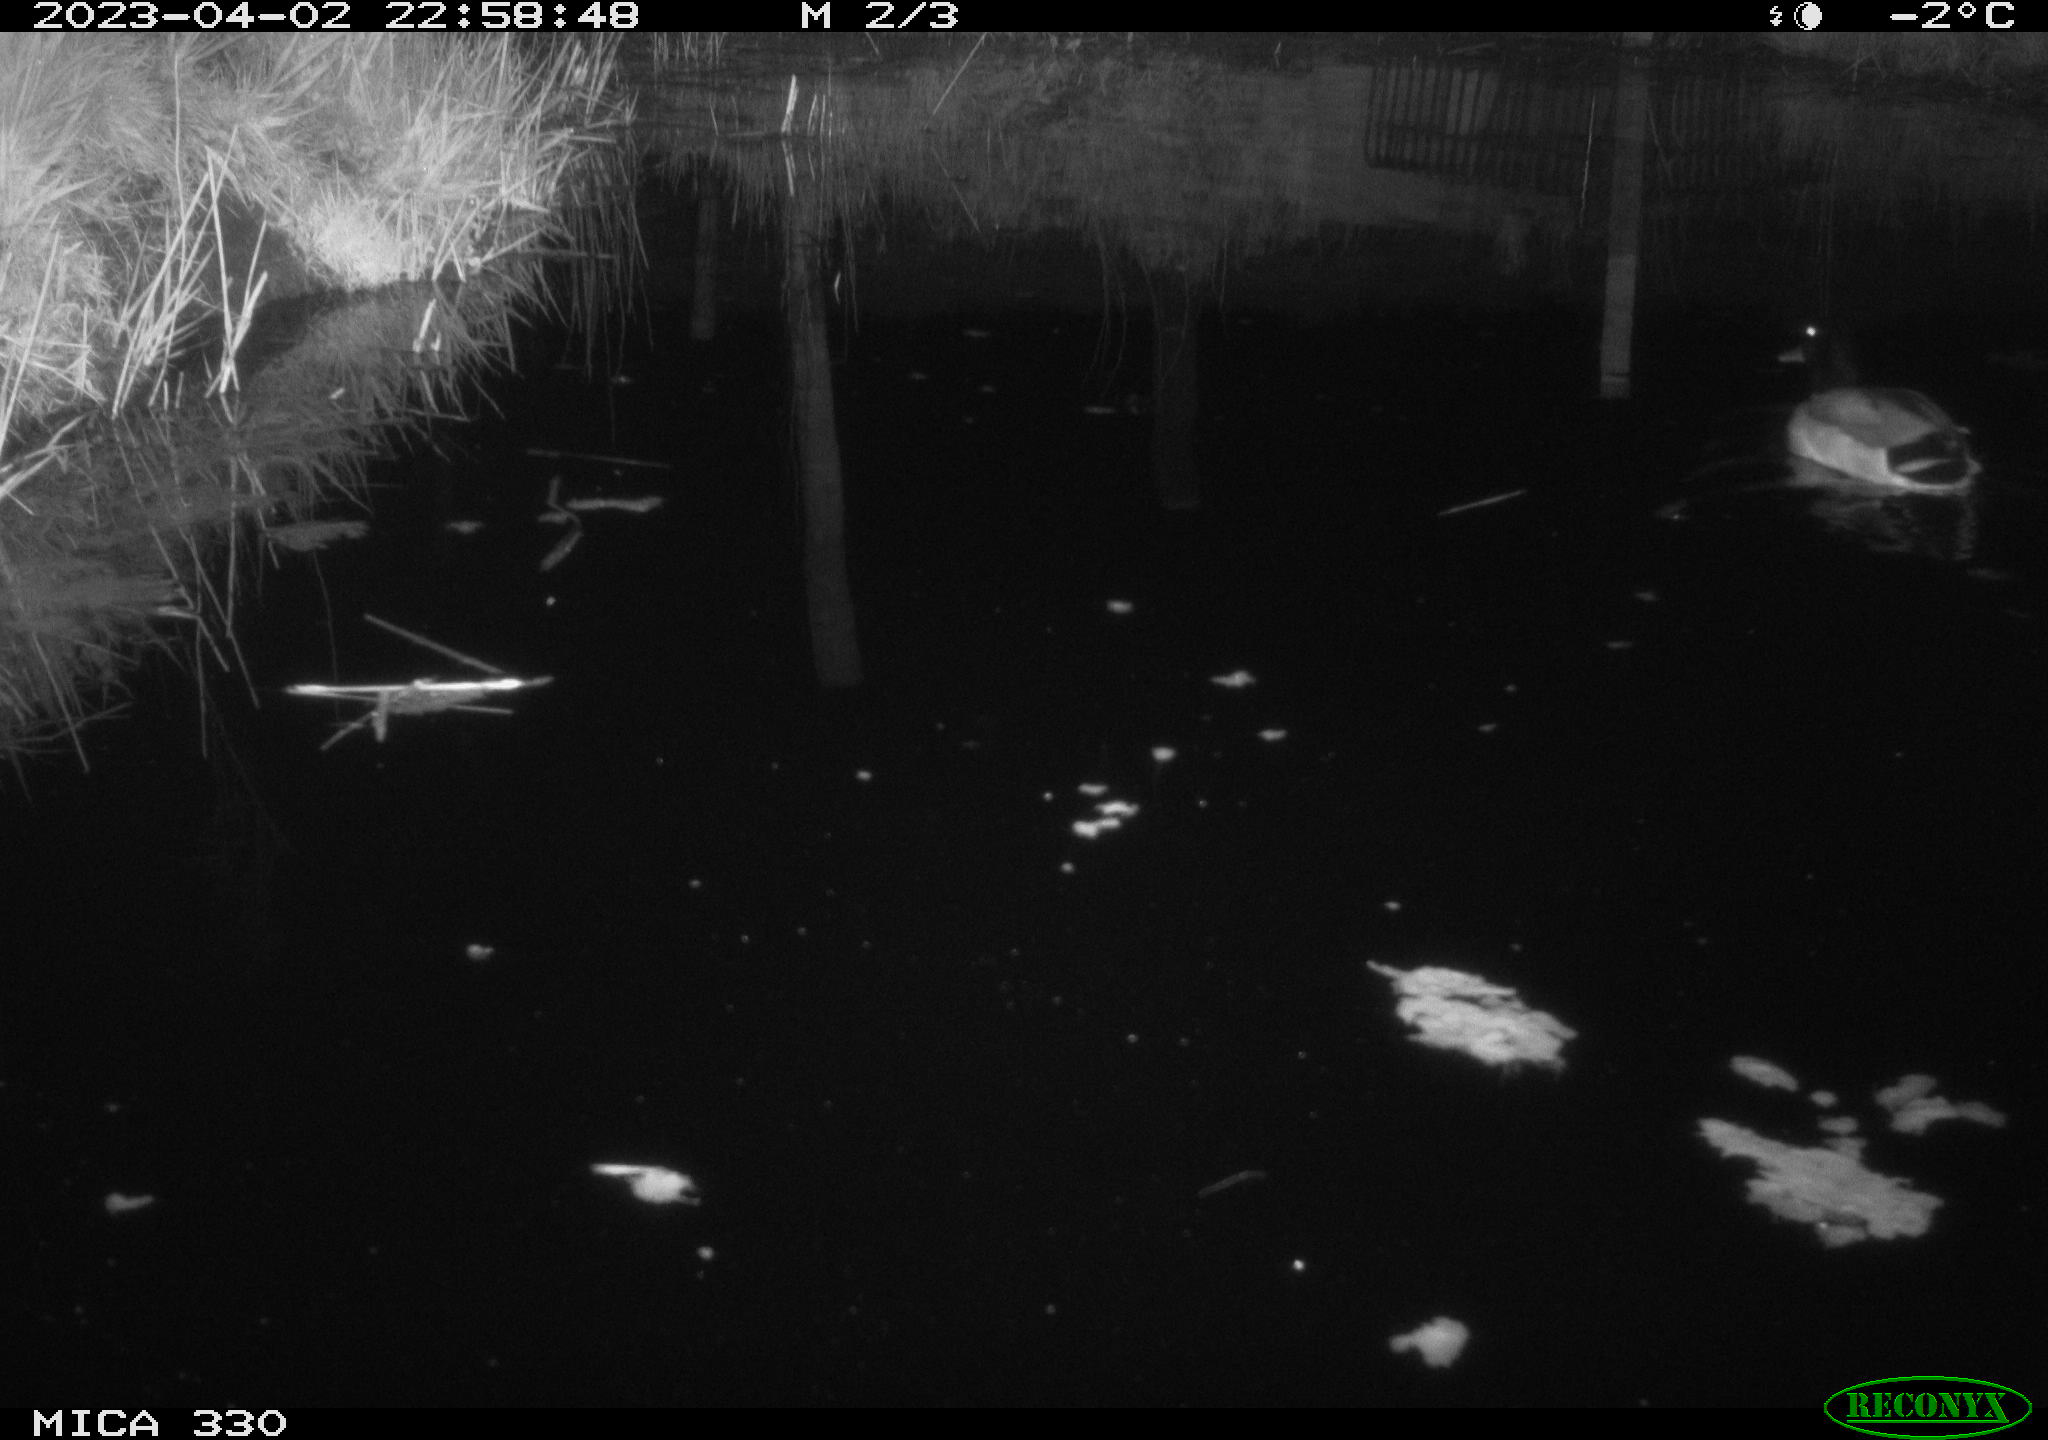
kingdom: Animalia
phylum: Chordata
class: Aves
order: Anseriformes
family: Anatidae
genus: Anas
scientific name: Anas
